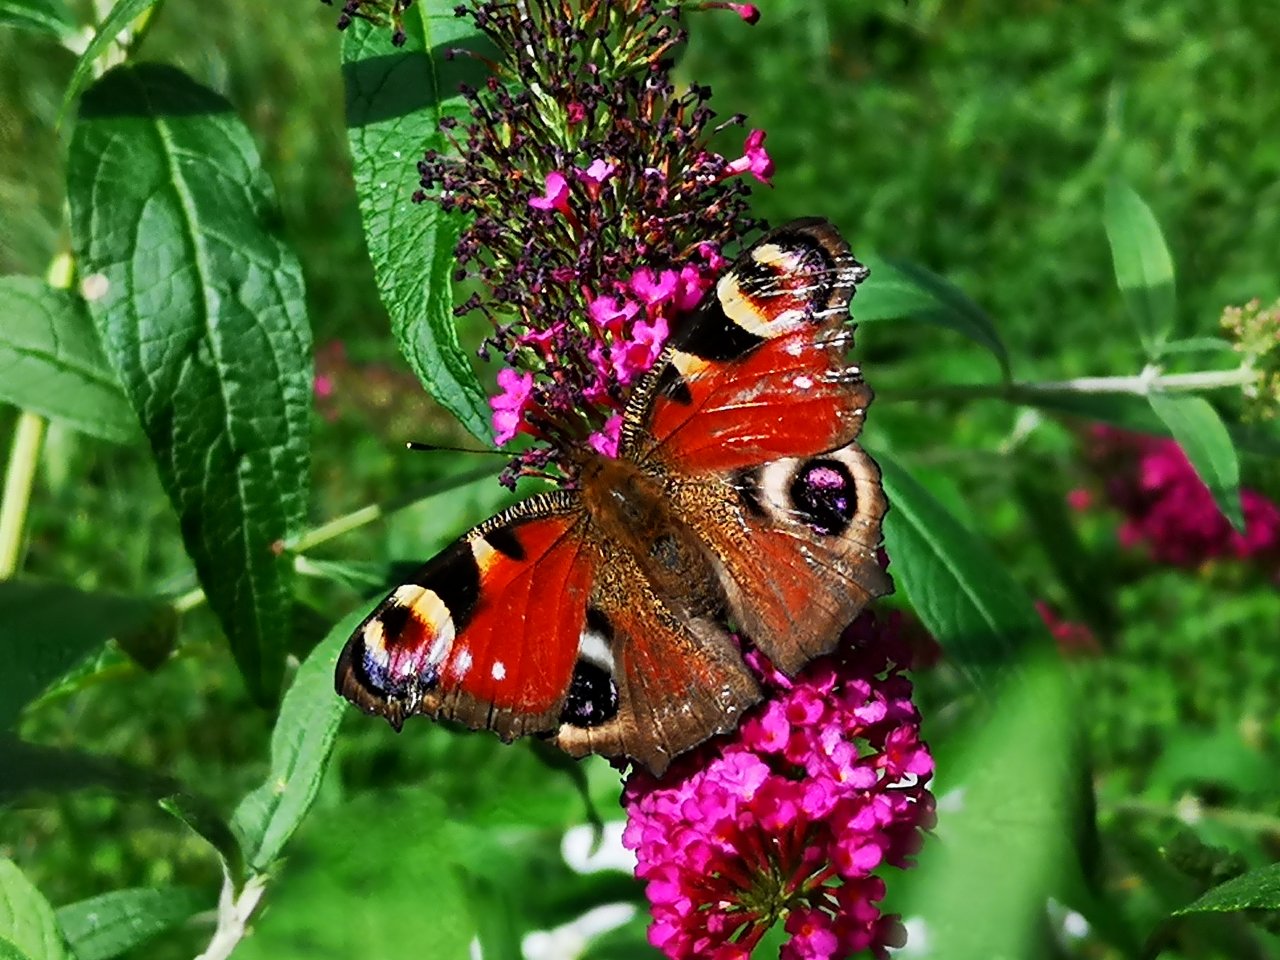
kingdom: Animalia
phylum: Arthropoda
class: Insecta
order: Lepidoptera
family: Nymphalidae
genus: Aglais
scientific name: Aglais io
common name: European Peacock
